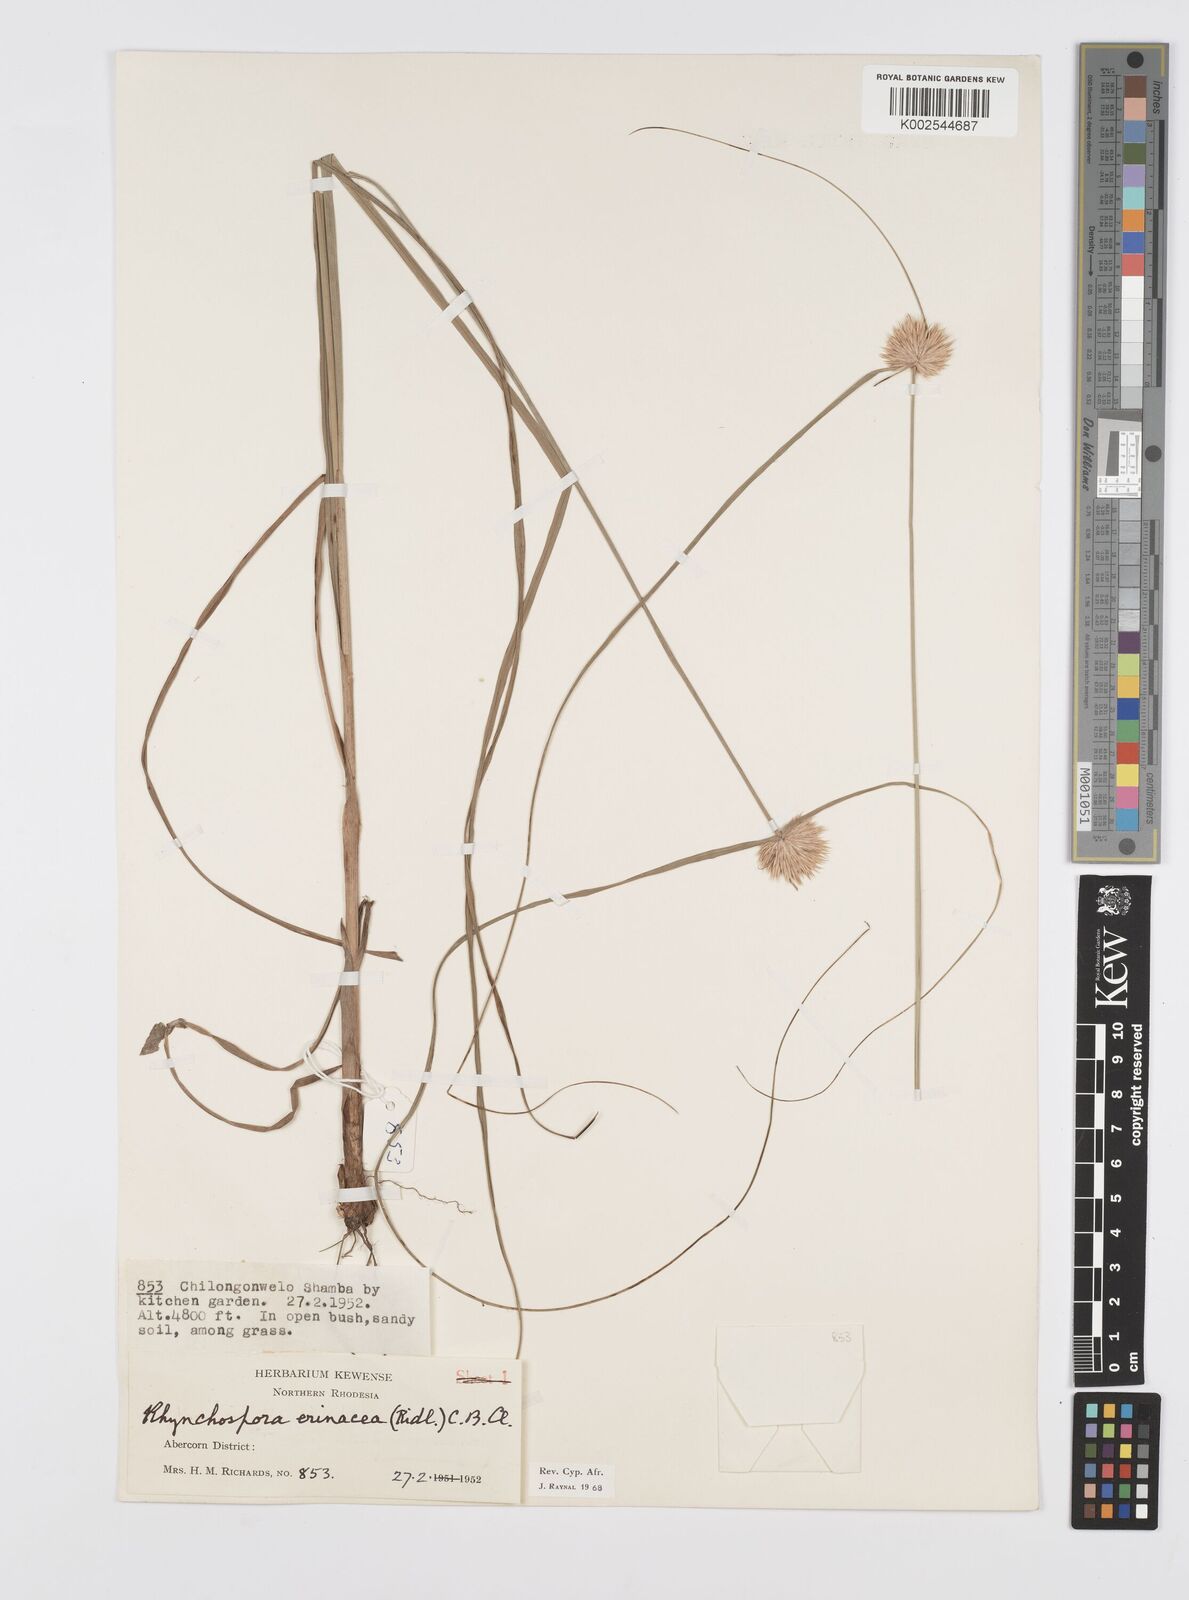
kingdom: Plantae
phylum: Tracheophyta
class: Liliopsida
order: Poales
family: Cyperaceae
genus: Cyperus
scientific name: Cyperus erinaceus
